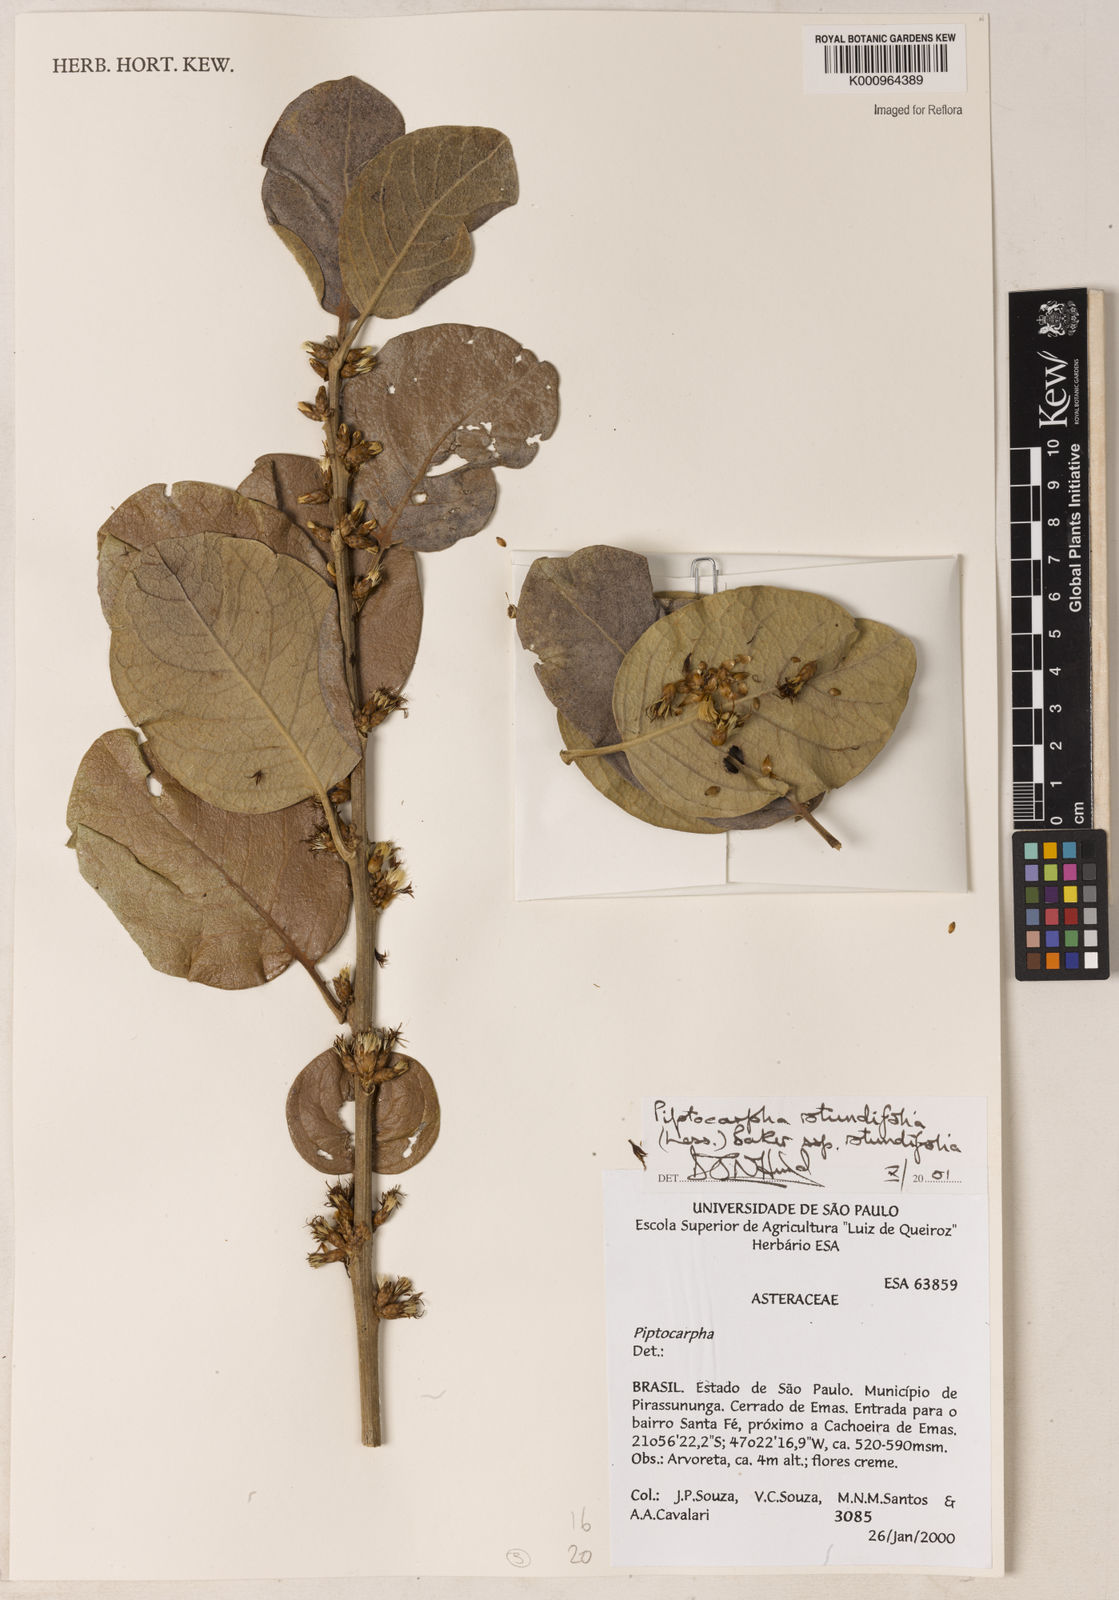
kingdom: Plantae
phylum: Tracheophyta
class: Magnoliopsida
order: Asterales
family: Asteraceae
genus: Piptocarpha
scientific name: Piptocarpha rotundifolia
